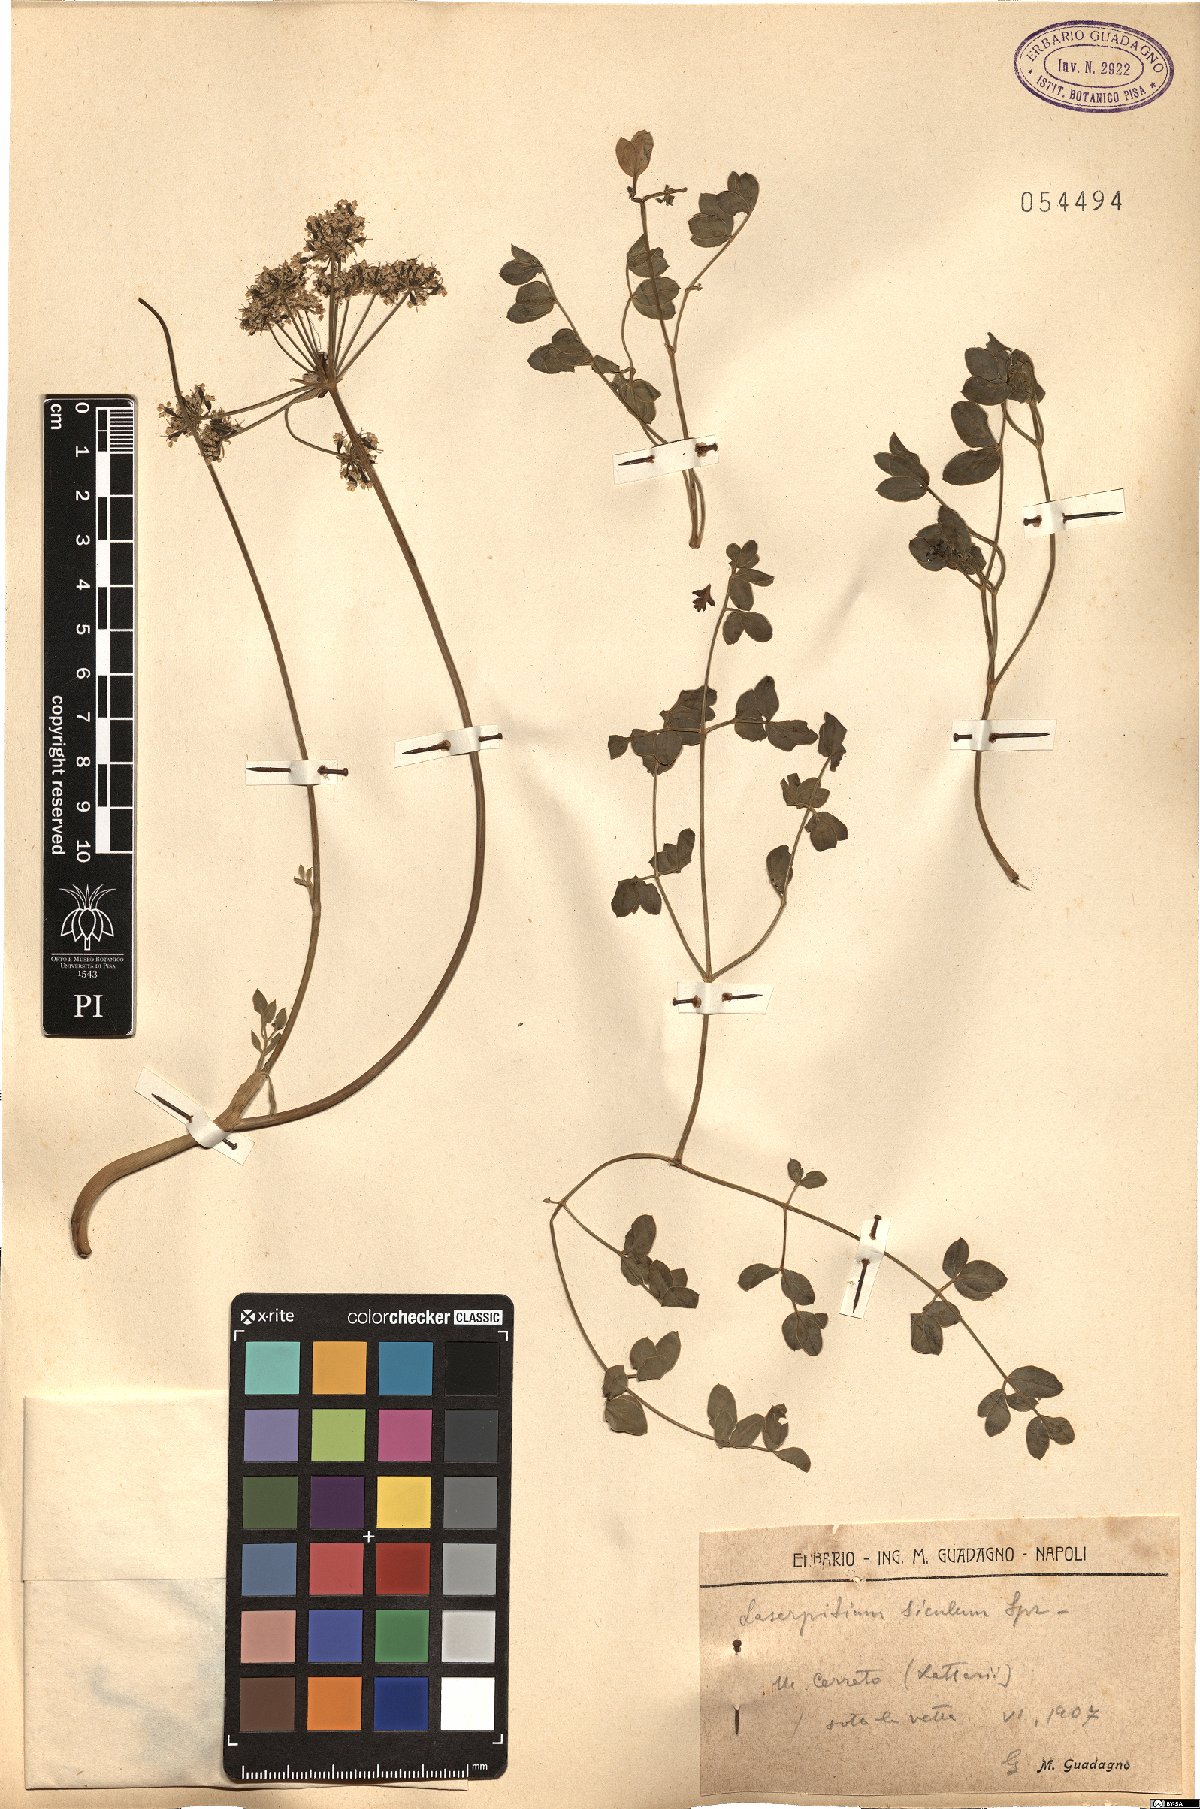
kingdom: Plantae
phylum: Tracheophyta
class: Magnoliopsida
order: Apiales
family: Apiaceae
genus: Siler
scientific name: Siler montanum
